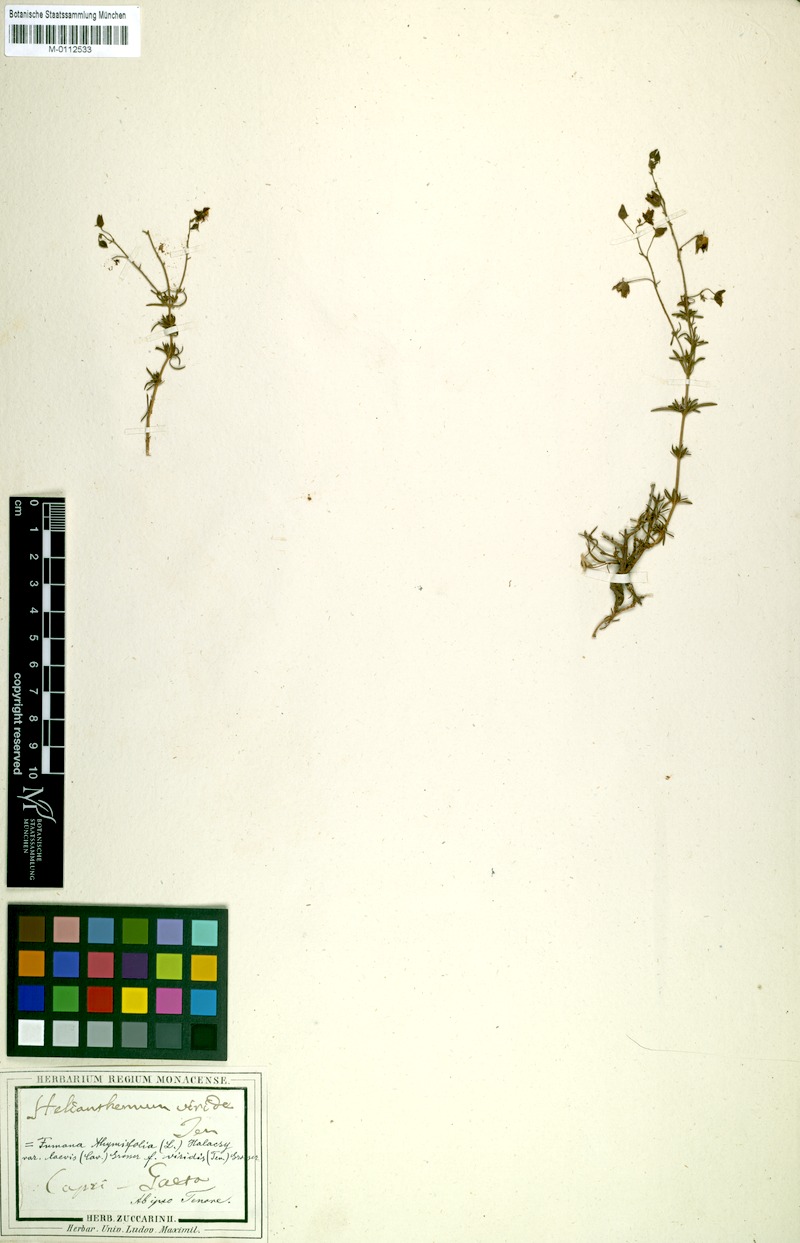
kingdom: Plantae
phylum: Tracheophyta
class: Magnoliopsida
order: Malvales
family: Cistaceae
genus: Fumana
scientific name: Fumana laevis
